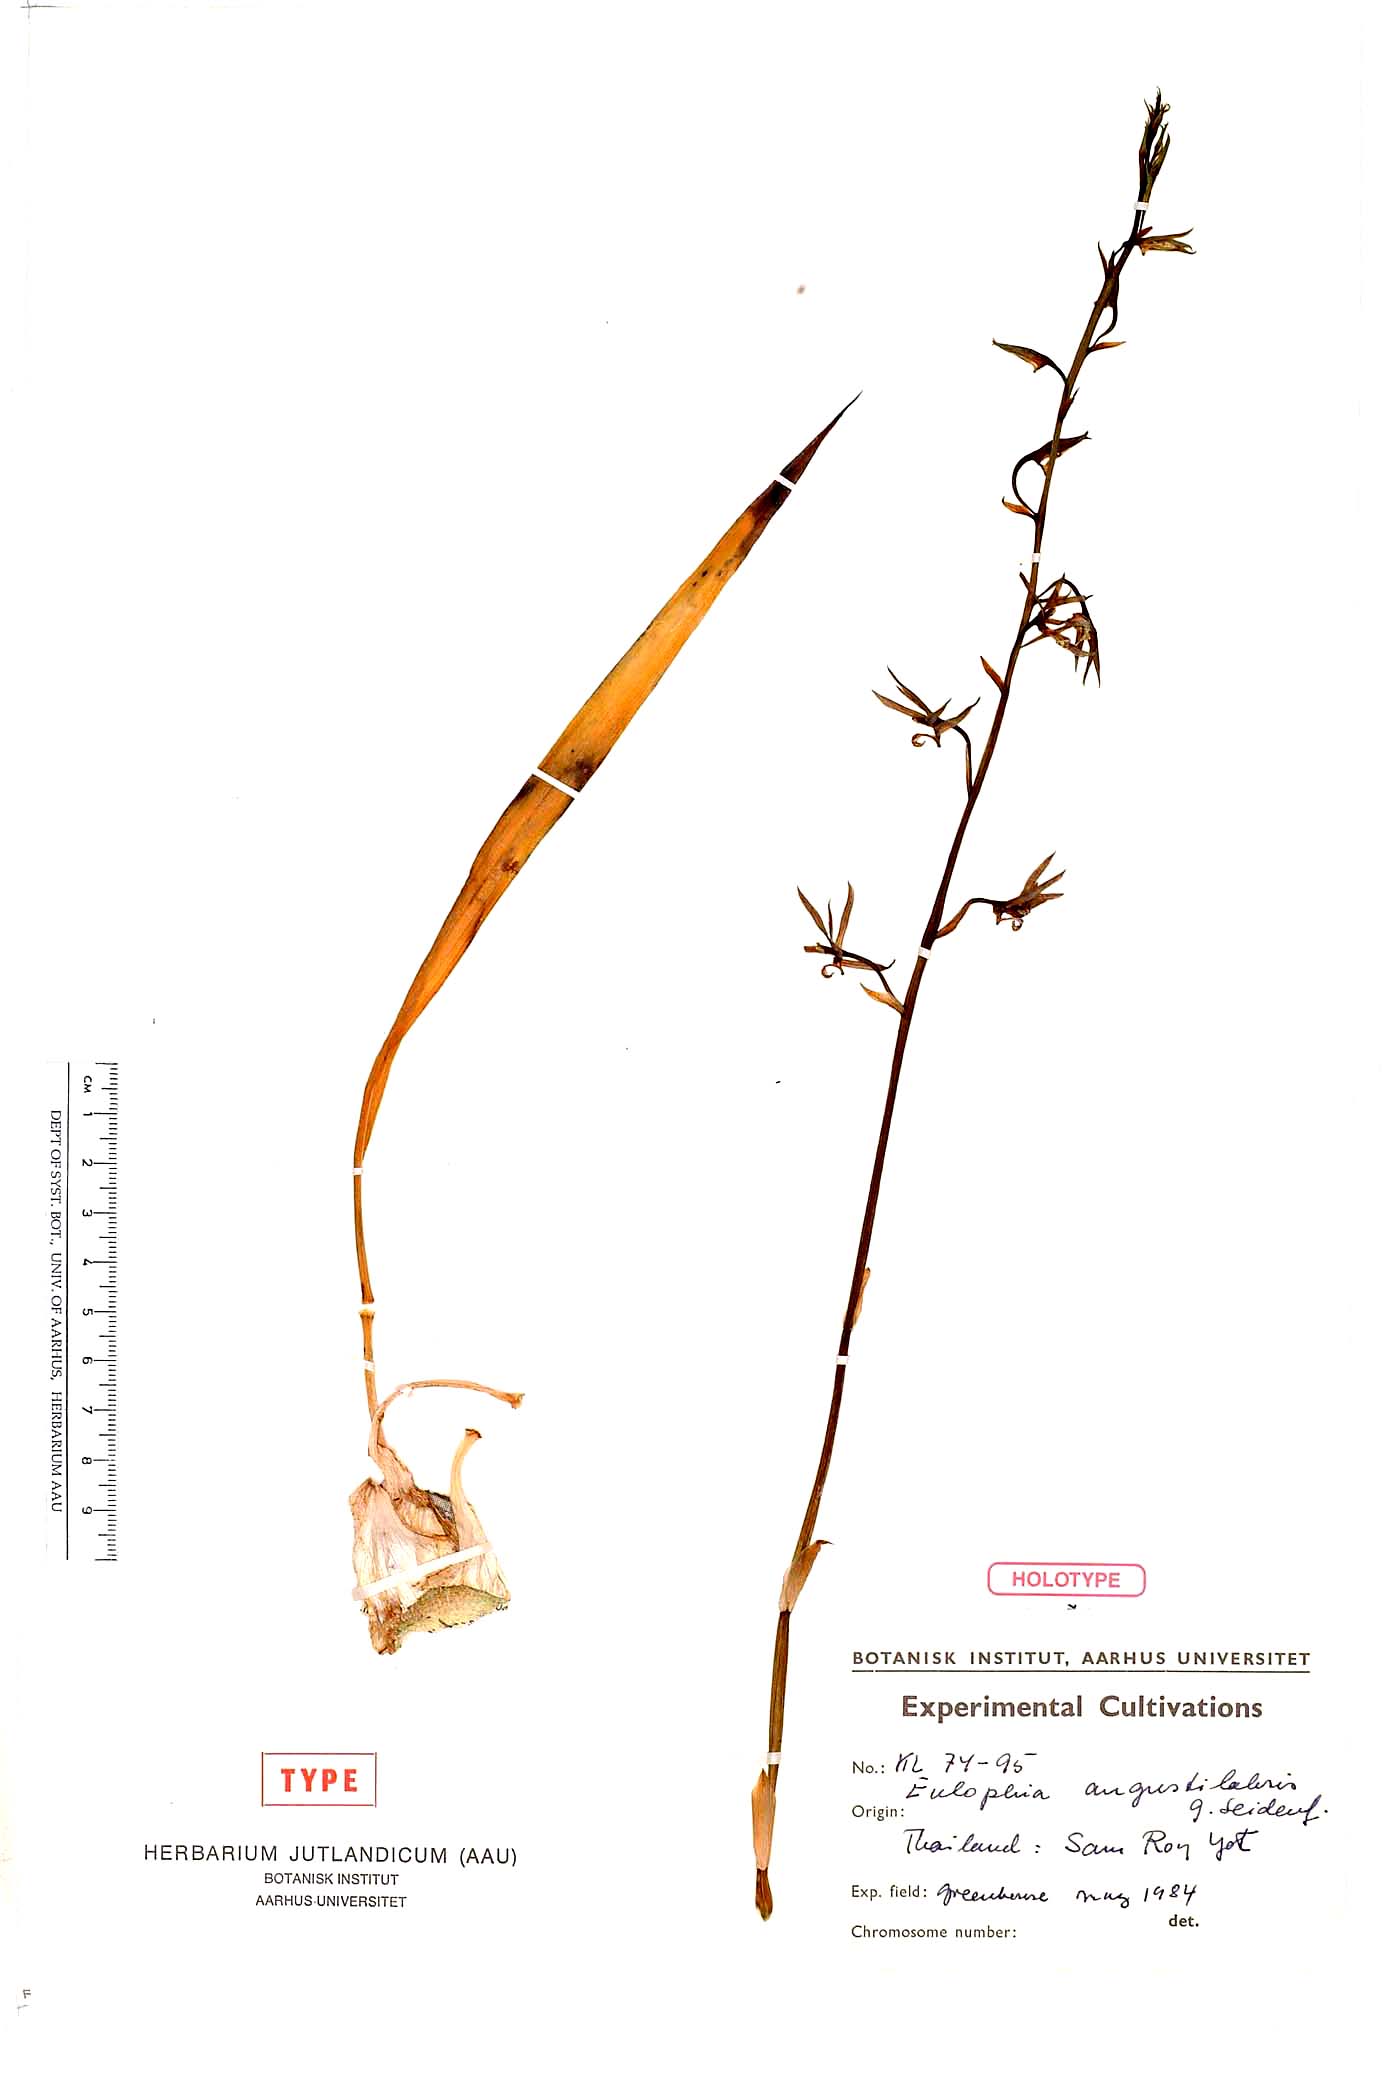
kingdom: Plantae
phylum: Tracheophyta
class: Liliopsida
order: Asparagales
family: Orchidaceae
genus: Eulophia
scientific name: Eulophia angustilabris
